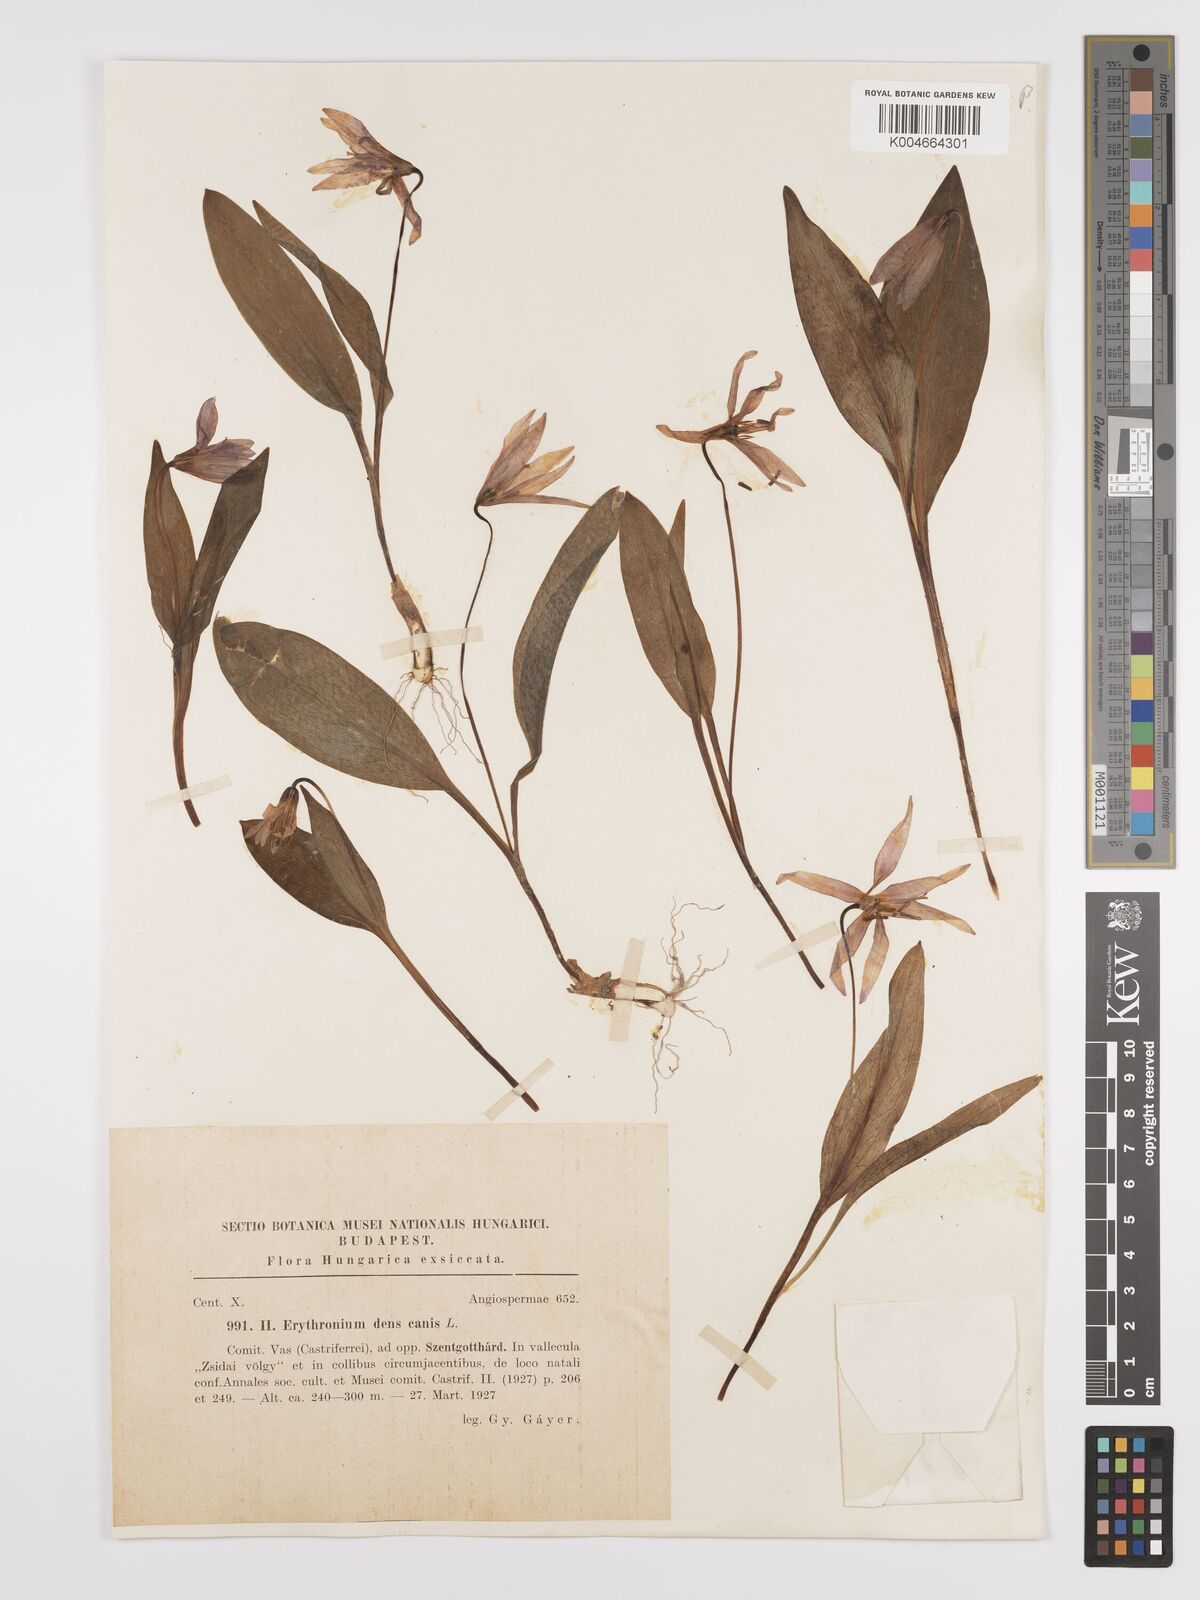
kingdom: Plantae
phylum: Tracheophyta
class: Liliopsida
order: Liliales
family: Liliaceae
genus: Erythronium
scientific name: Erythronium dens-canis
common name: Dog's-tooth-violet
